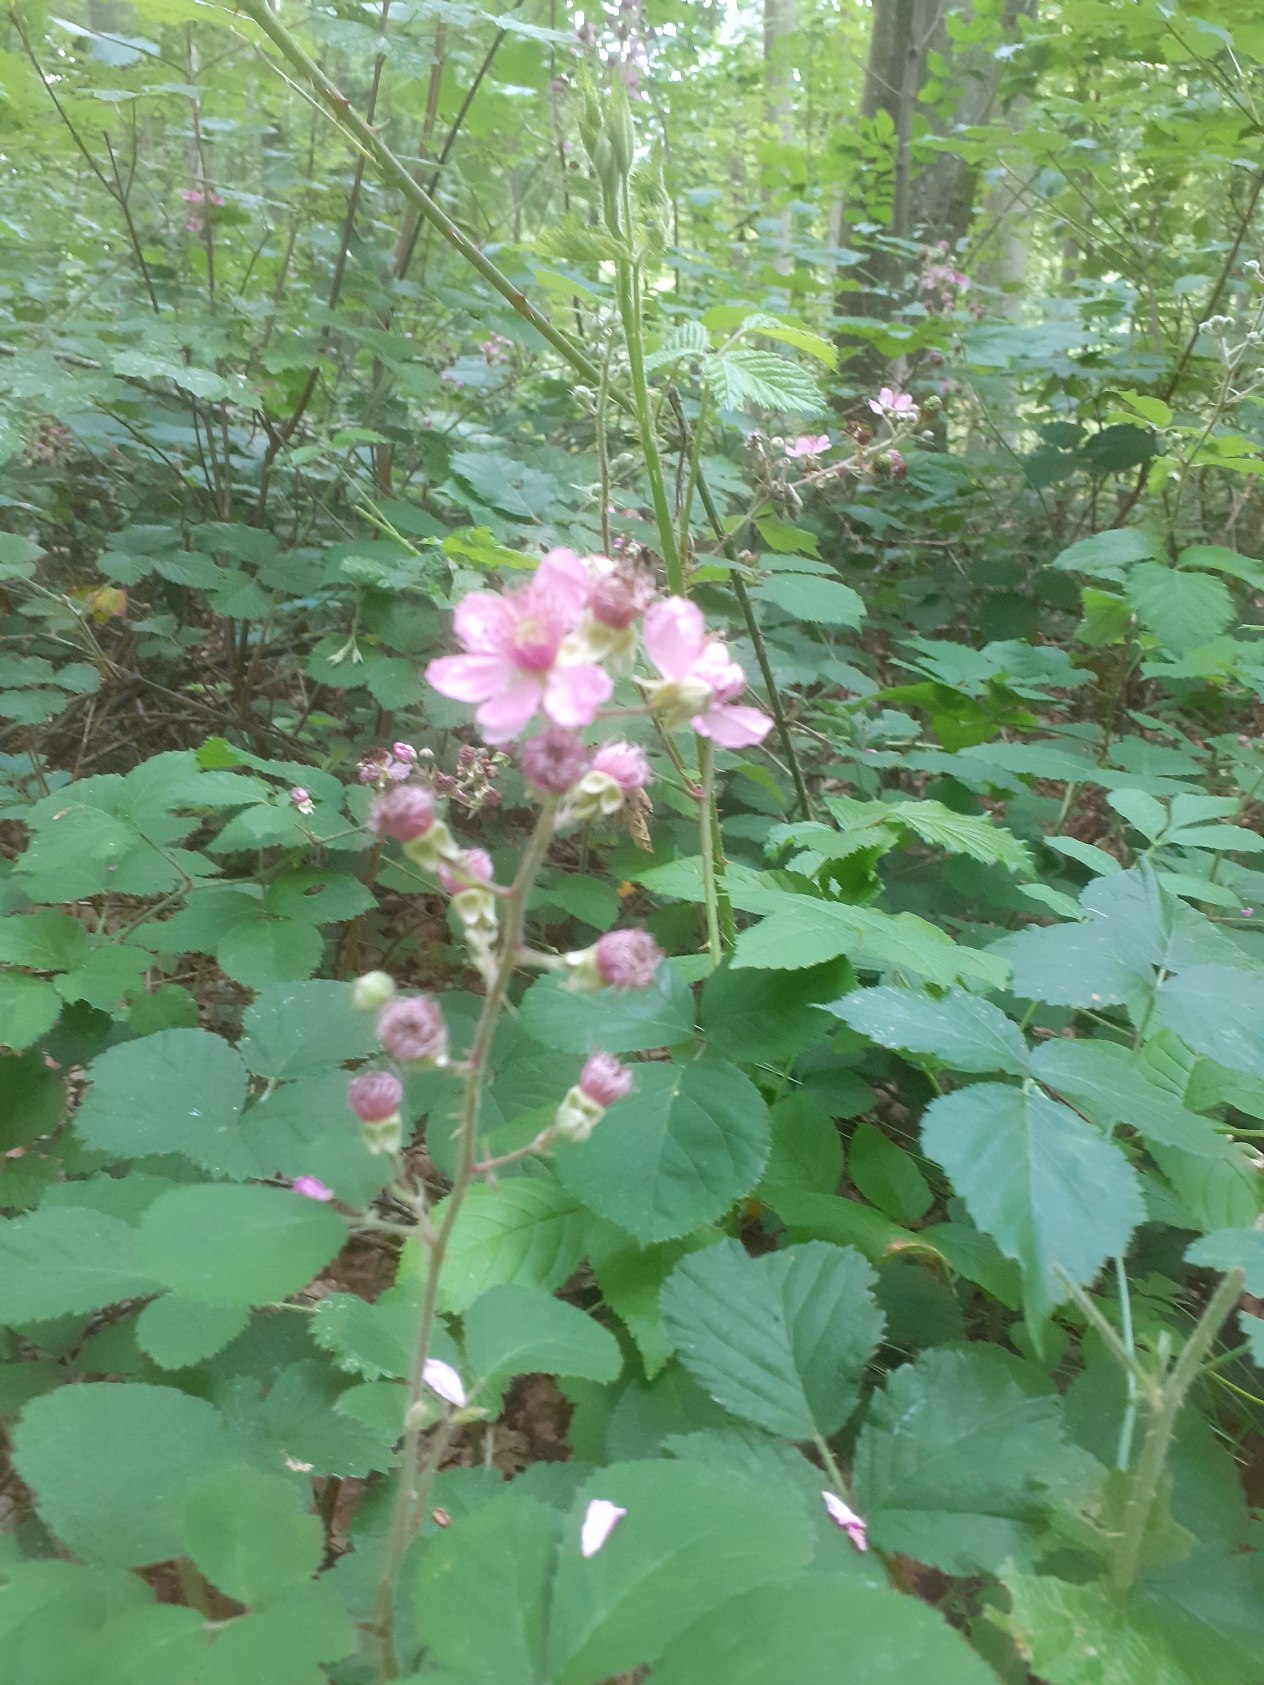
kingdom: Plantae
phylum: Tracheophyta
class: Magnoliopsida
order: Rosales
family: Rosaceae
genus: Rubus
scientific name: Rubus umbrosus
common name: Pyramide-brombær
